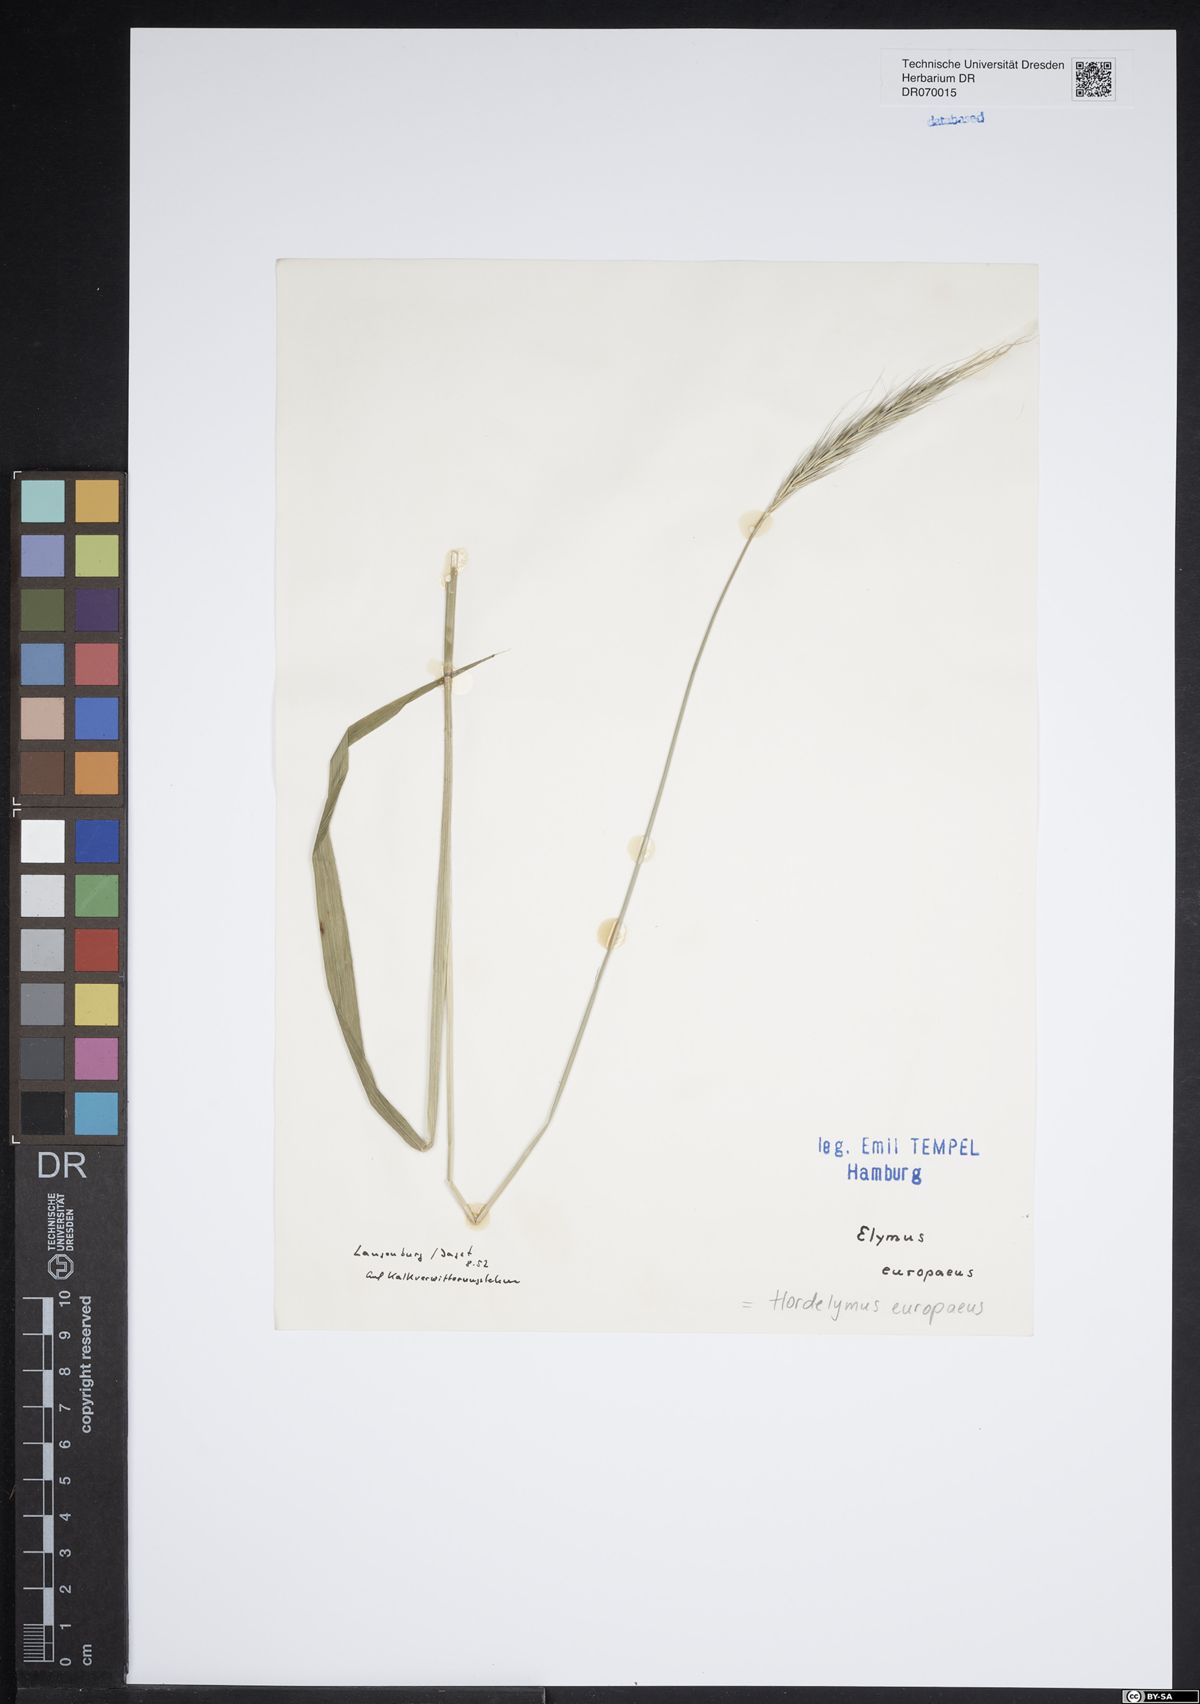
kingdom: Plantae
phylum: Tracheophyta
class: Liliopsida
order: Poales
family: Poaceae
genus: Hordelymus
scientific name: Hordelymus europaeus
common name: Wood-barley
